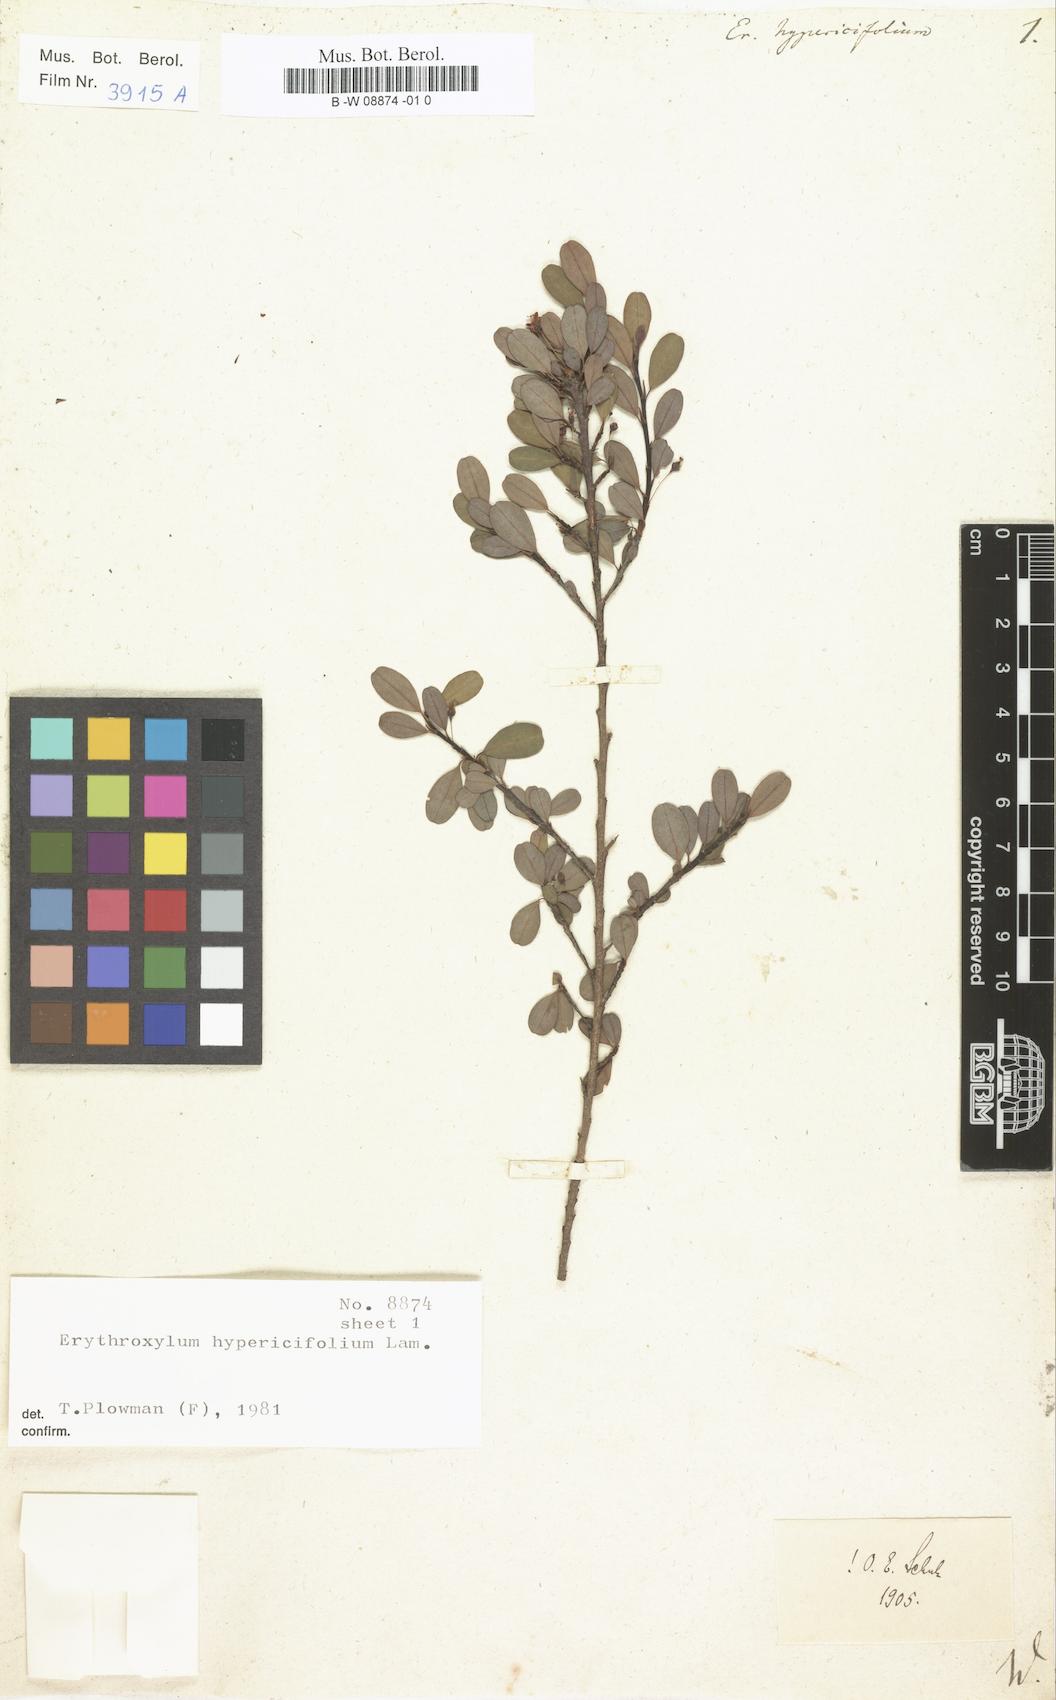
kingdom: Plantae
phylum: Tracheophyta
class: Magnoliopsida
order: Malpighiales
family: Erythroxylaceae
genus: Erythroxylum
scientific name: Erythroxylum hypericifolium
